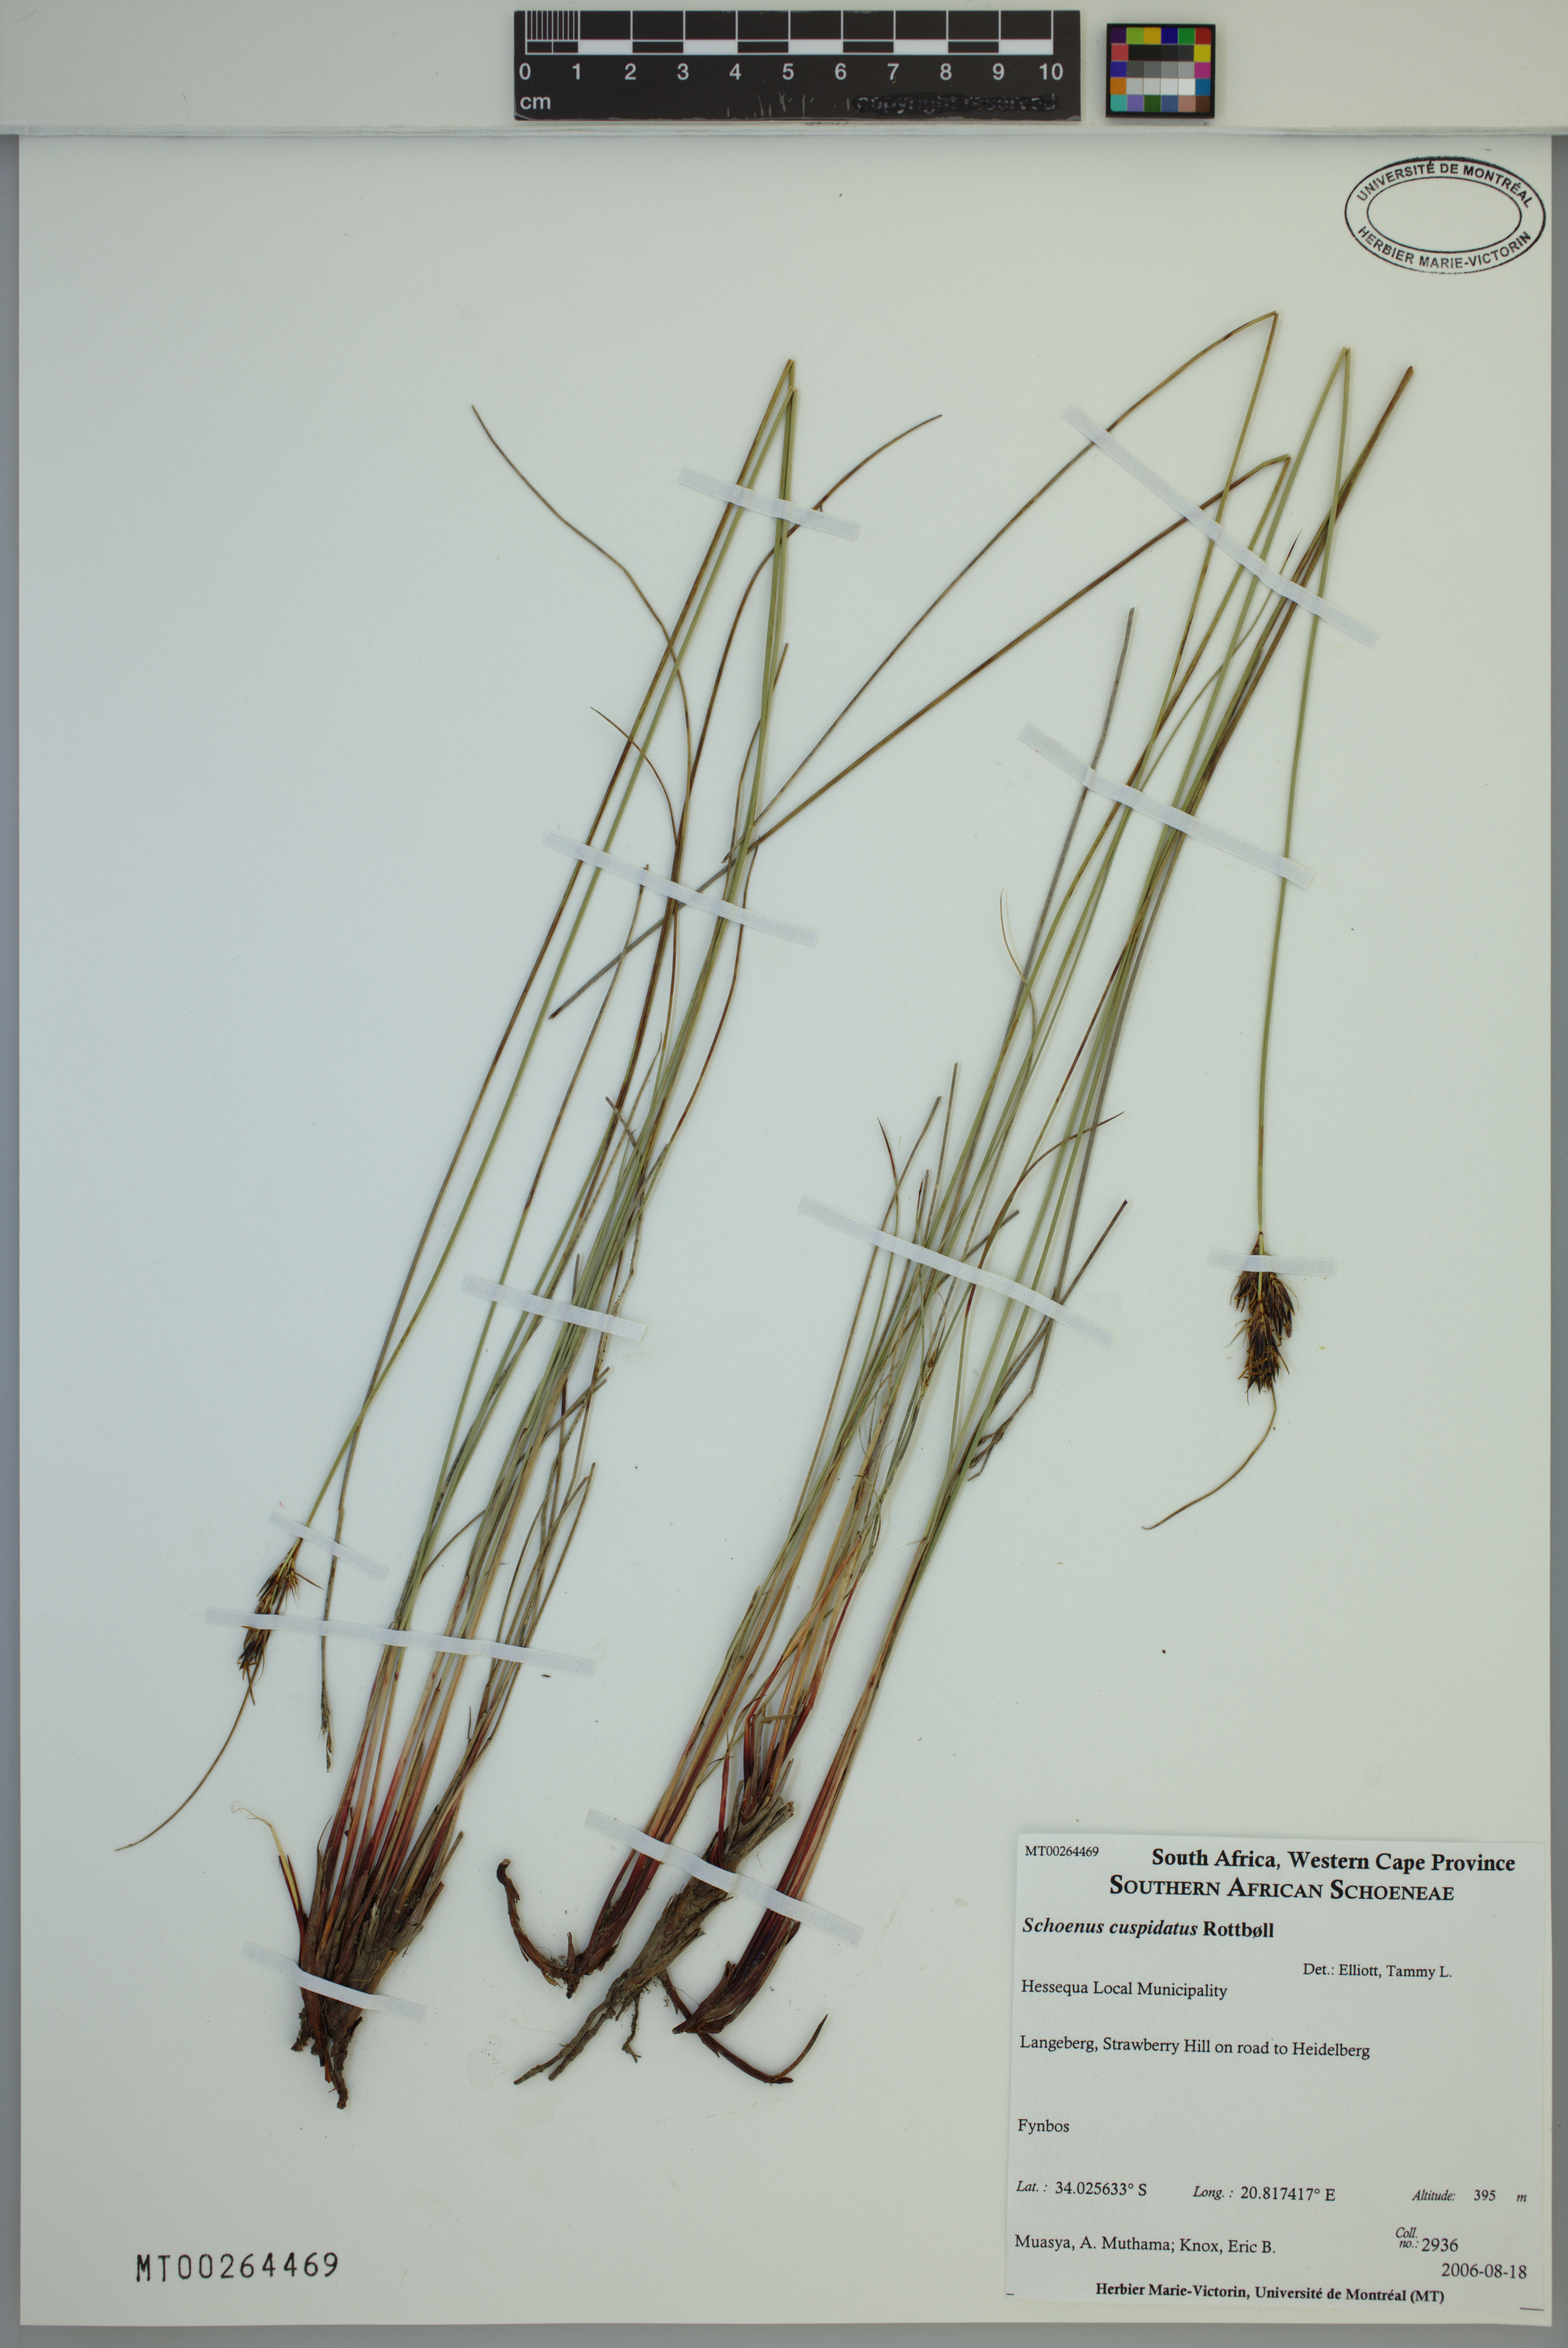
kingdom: Plantae
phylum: Tracheophyta
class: Liliopsida
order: Poales
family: Cyperaceae
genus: Schoenus
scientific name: Schoenus cuspidatus
